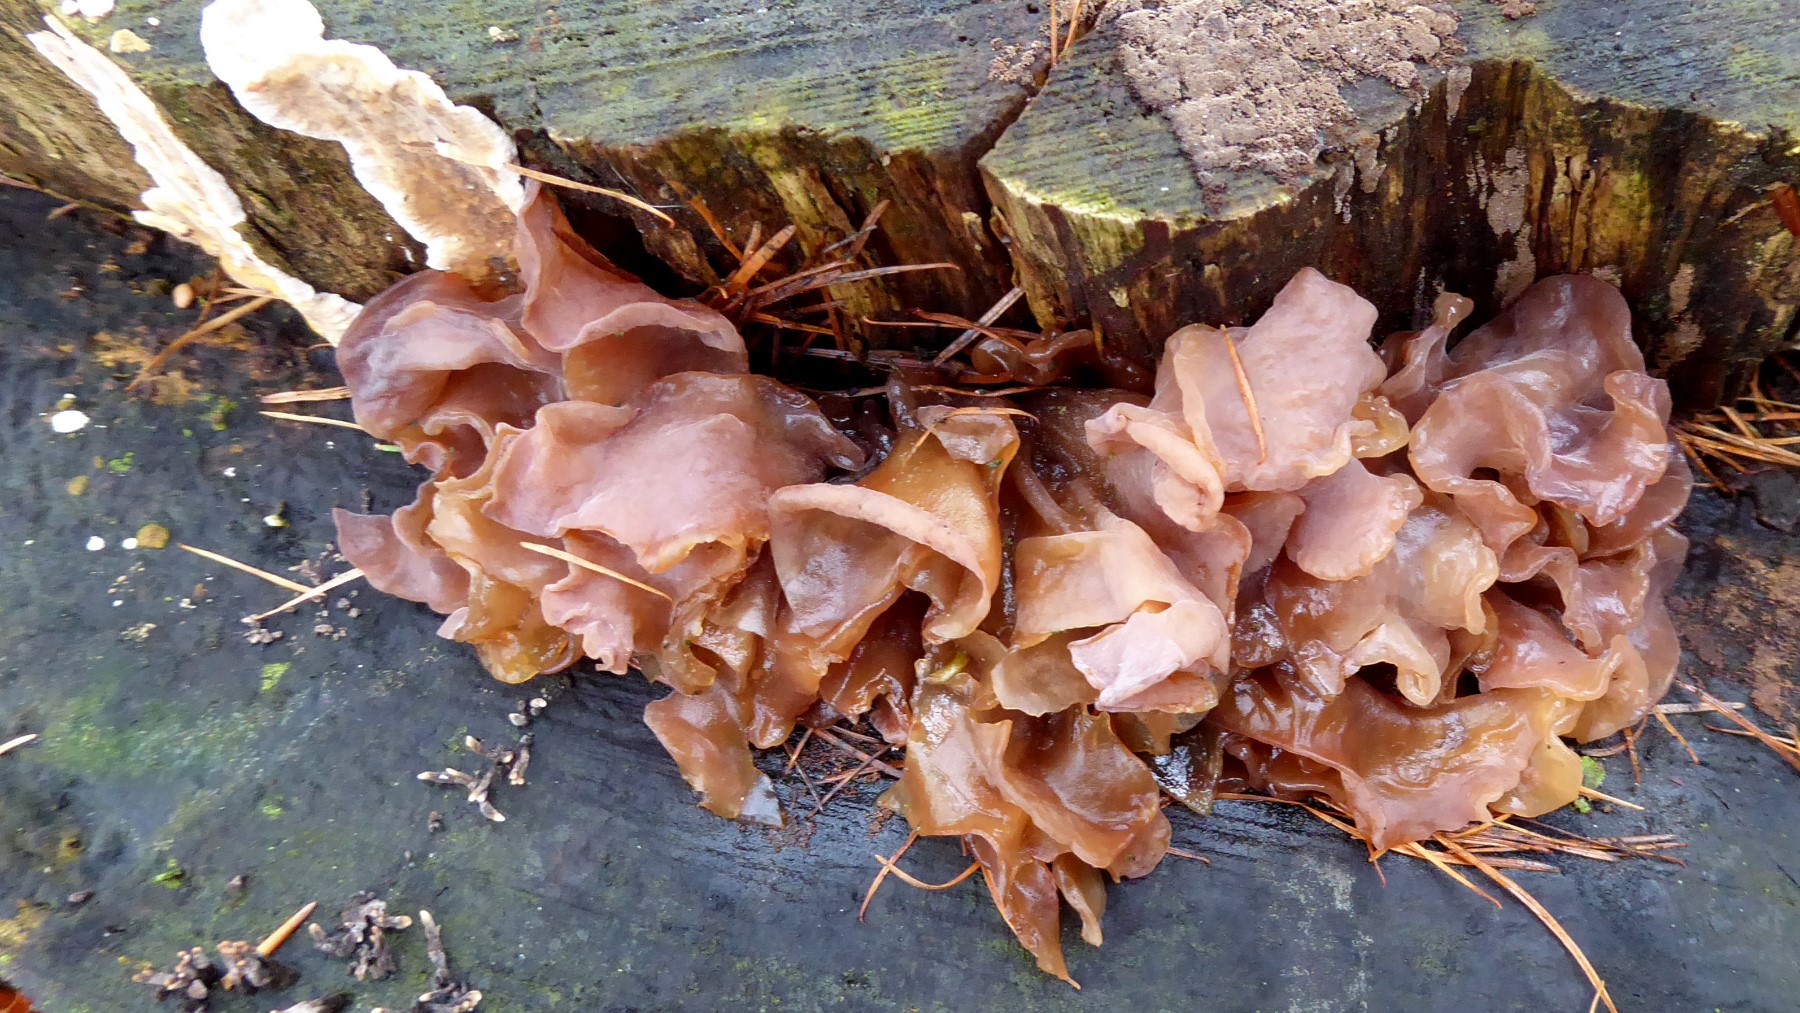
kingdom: Fungi
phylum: Basidiomycota
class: Tremellomycetes
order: Tremellales
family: Tremellaceae
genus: Phaeotremella
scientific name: Phaeotremella frondosa
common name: kæmpe-bævresvamp
